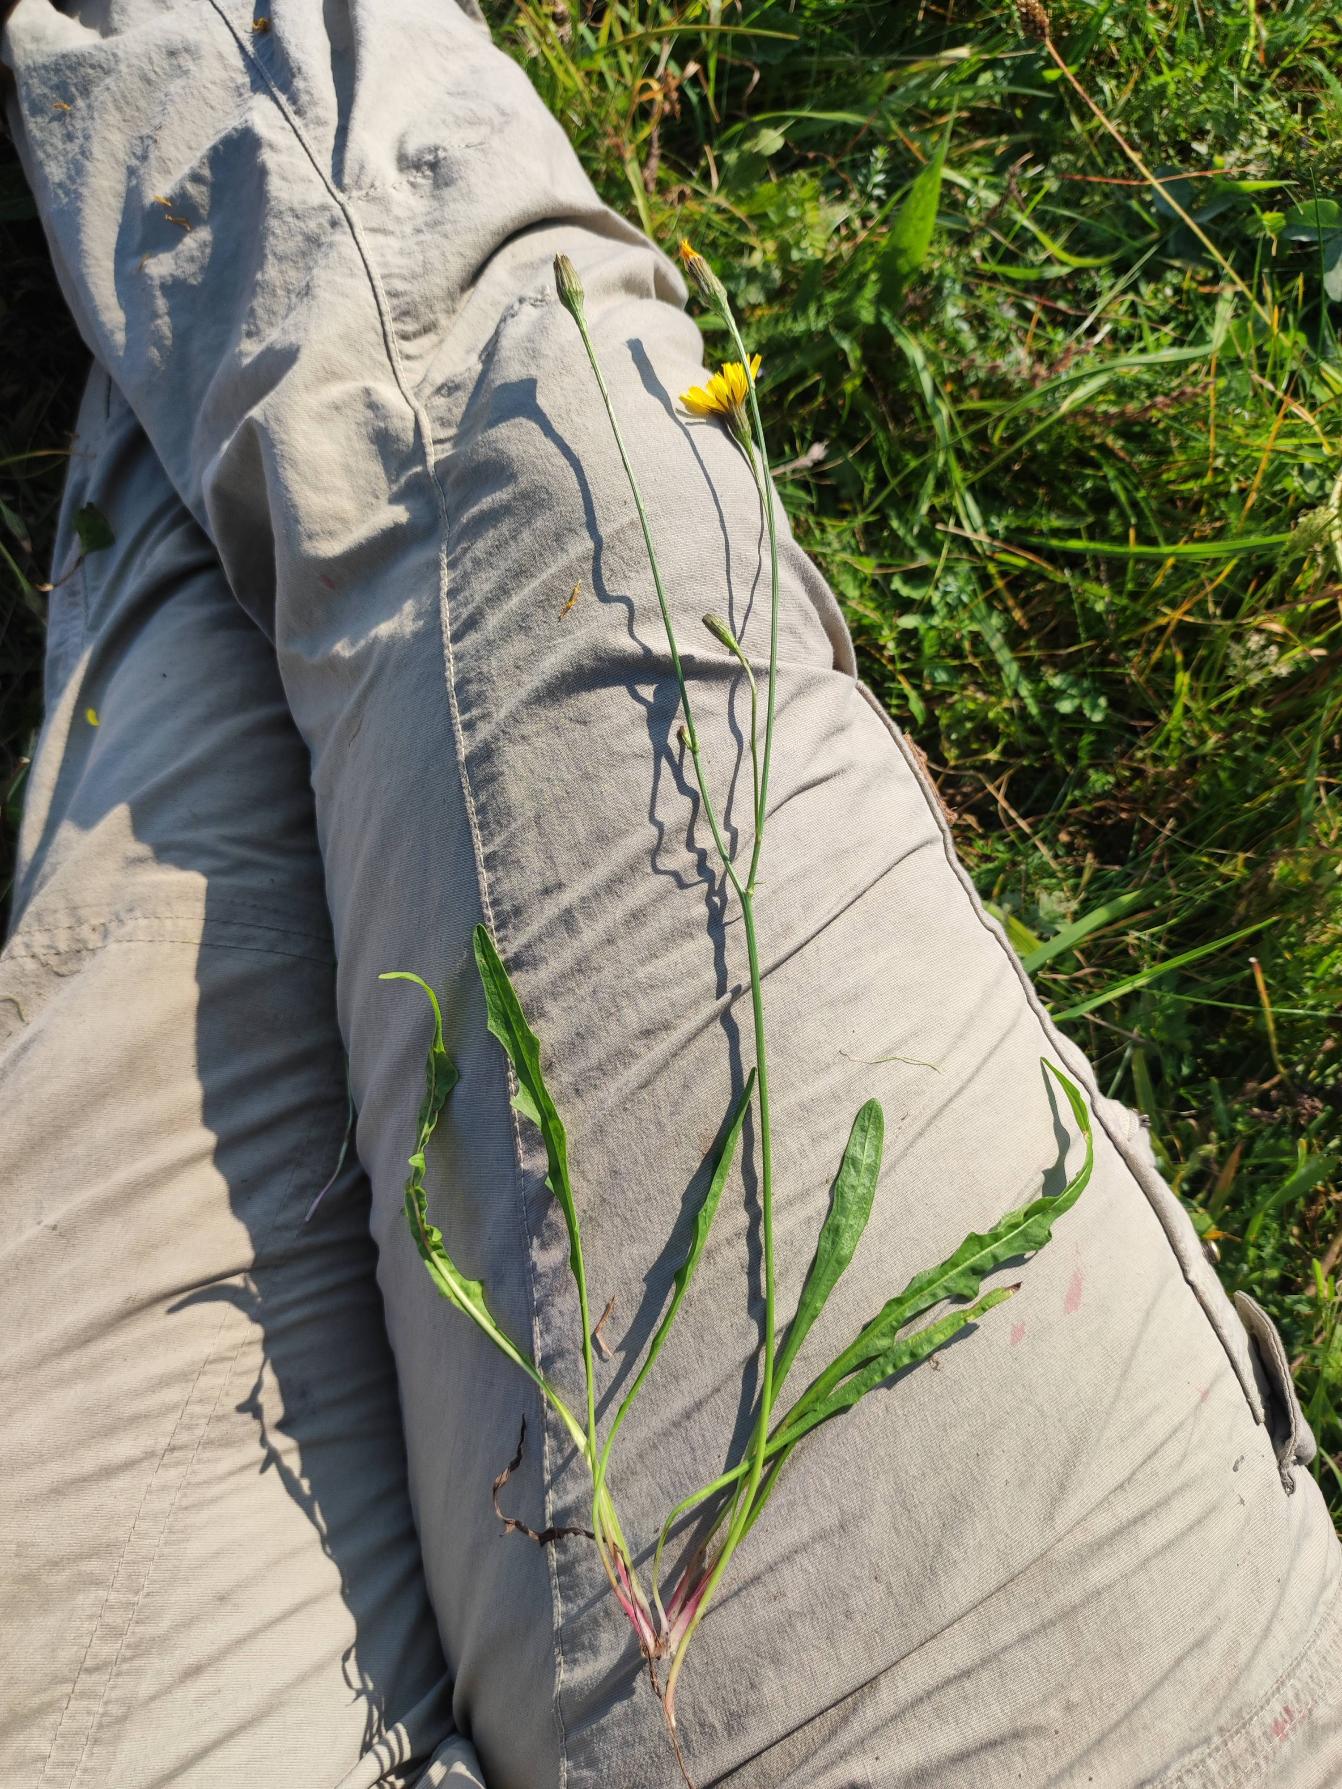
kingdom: Plantae
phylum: Tracheophyta
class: Magnoliopsida
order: Asterales
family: Asteraceae
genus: Scorzoneroides
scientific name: Scorzoneroides autumnalis
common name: Høst-borst
